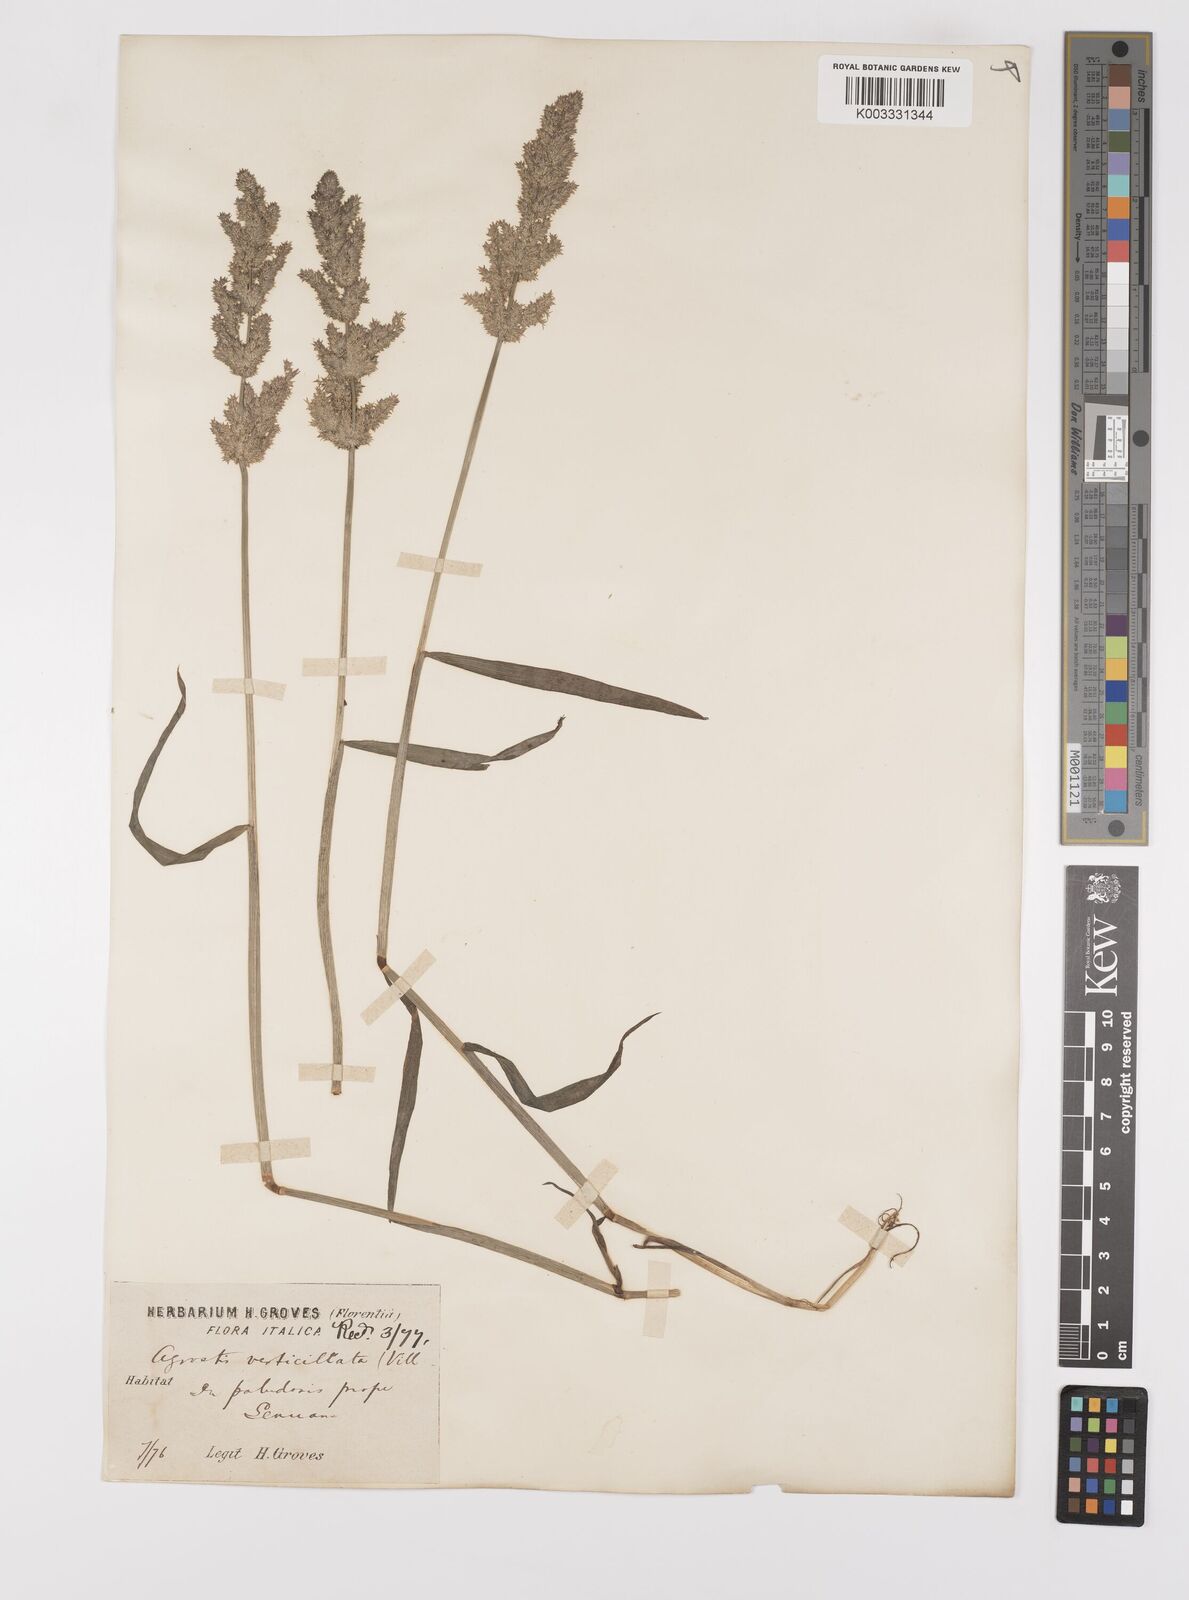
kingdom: Plantae
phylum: Tracheophyta
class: Liliopsida
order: Poales
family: Poaceae
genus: Polypogon
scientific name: Polypogon viridis
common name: Water bent
